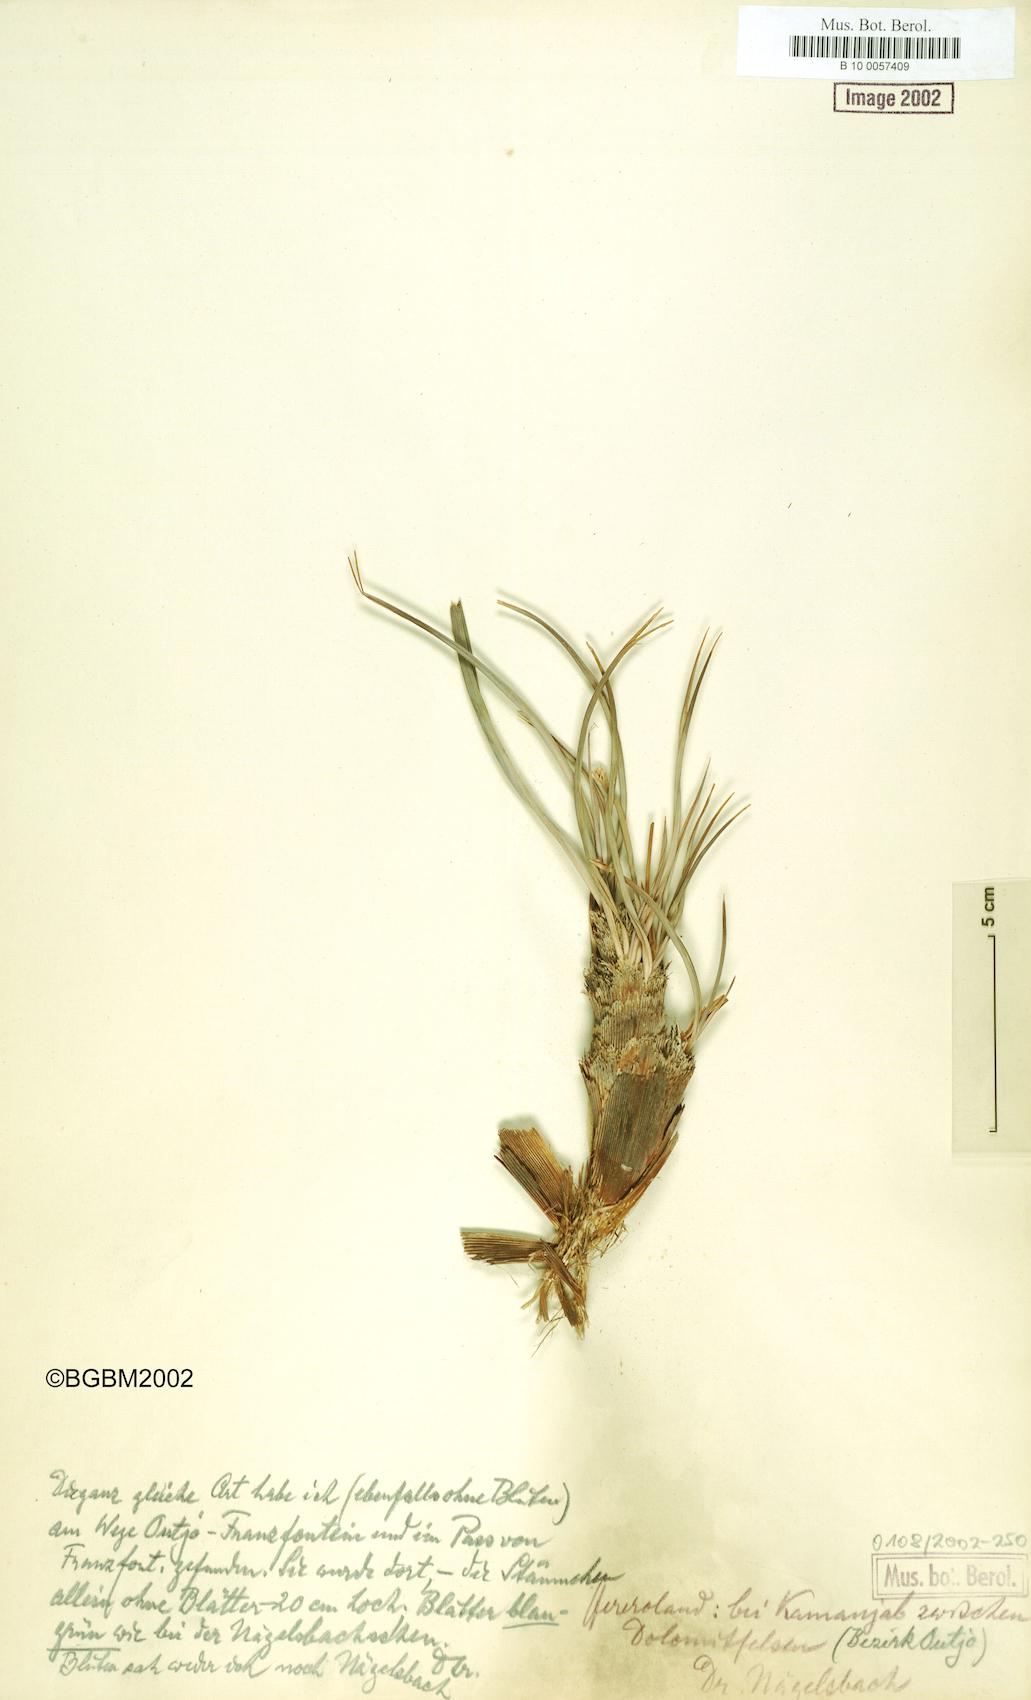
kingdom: Plantae
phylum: Tracheophyta
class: Liliopsida
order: Pandanales
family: Velloziaceae
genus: Xerophyta
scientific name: Xerophyta
